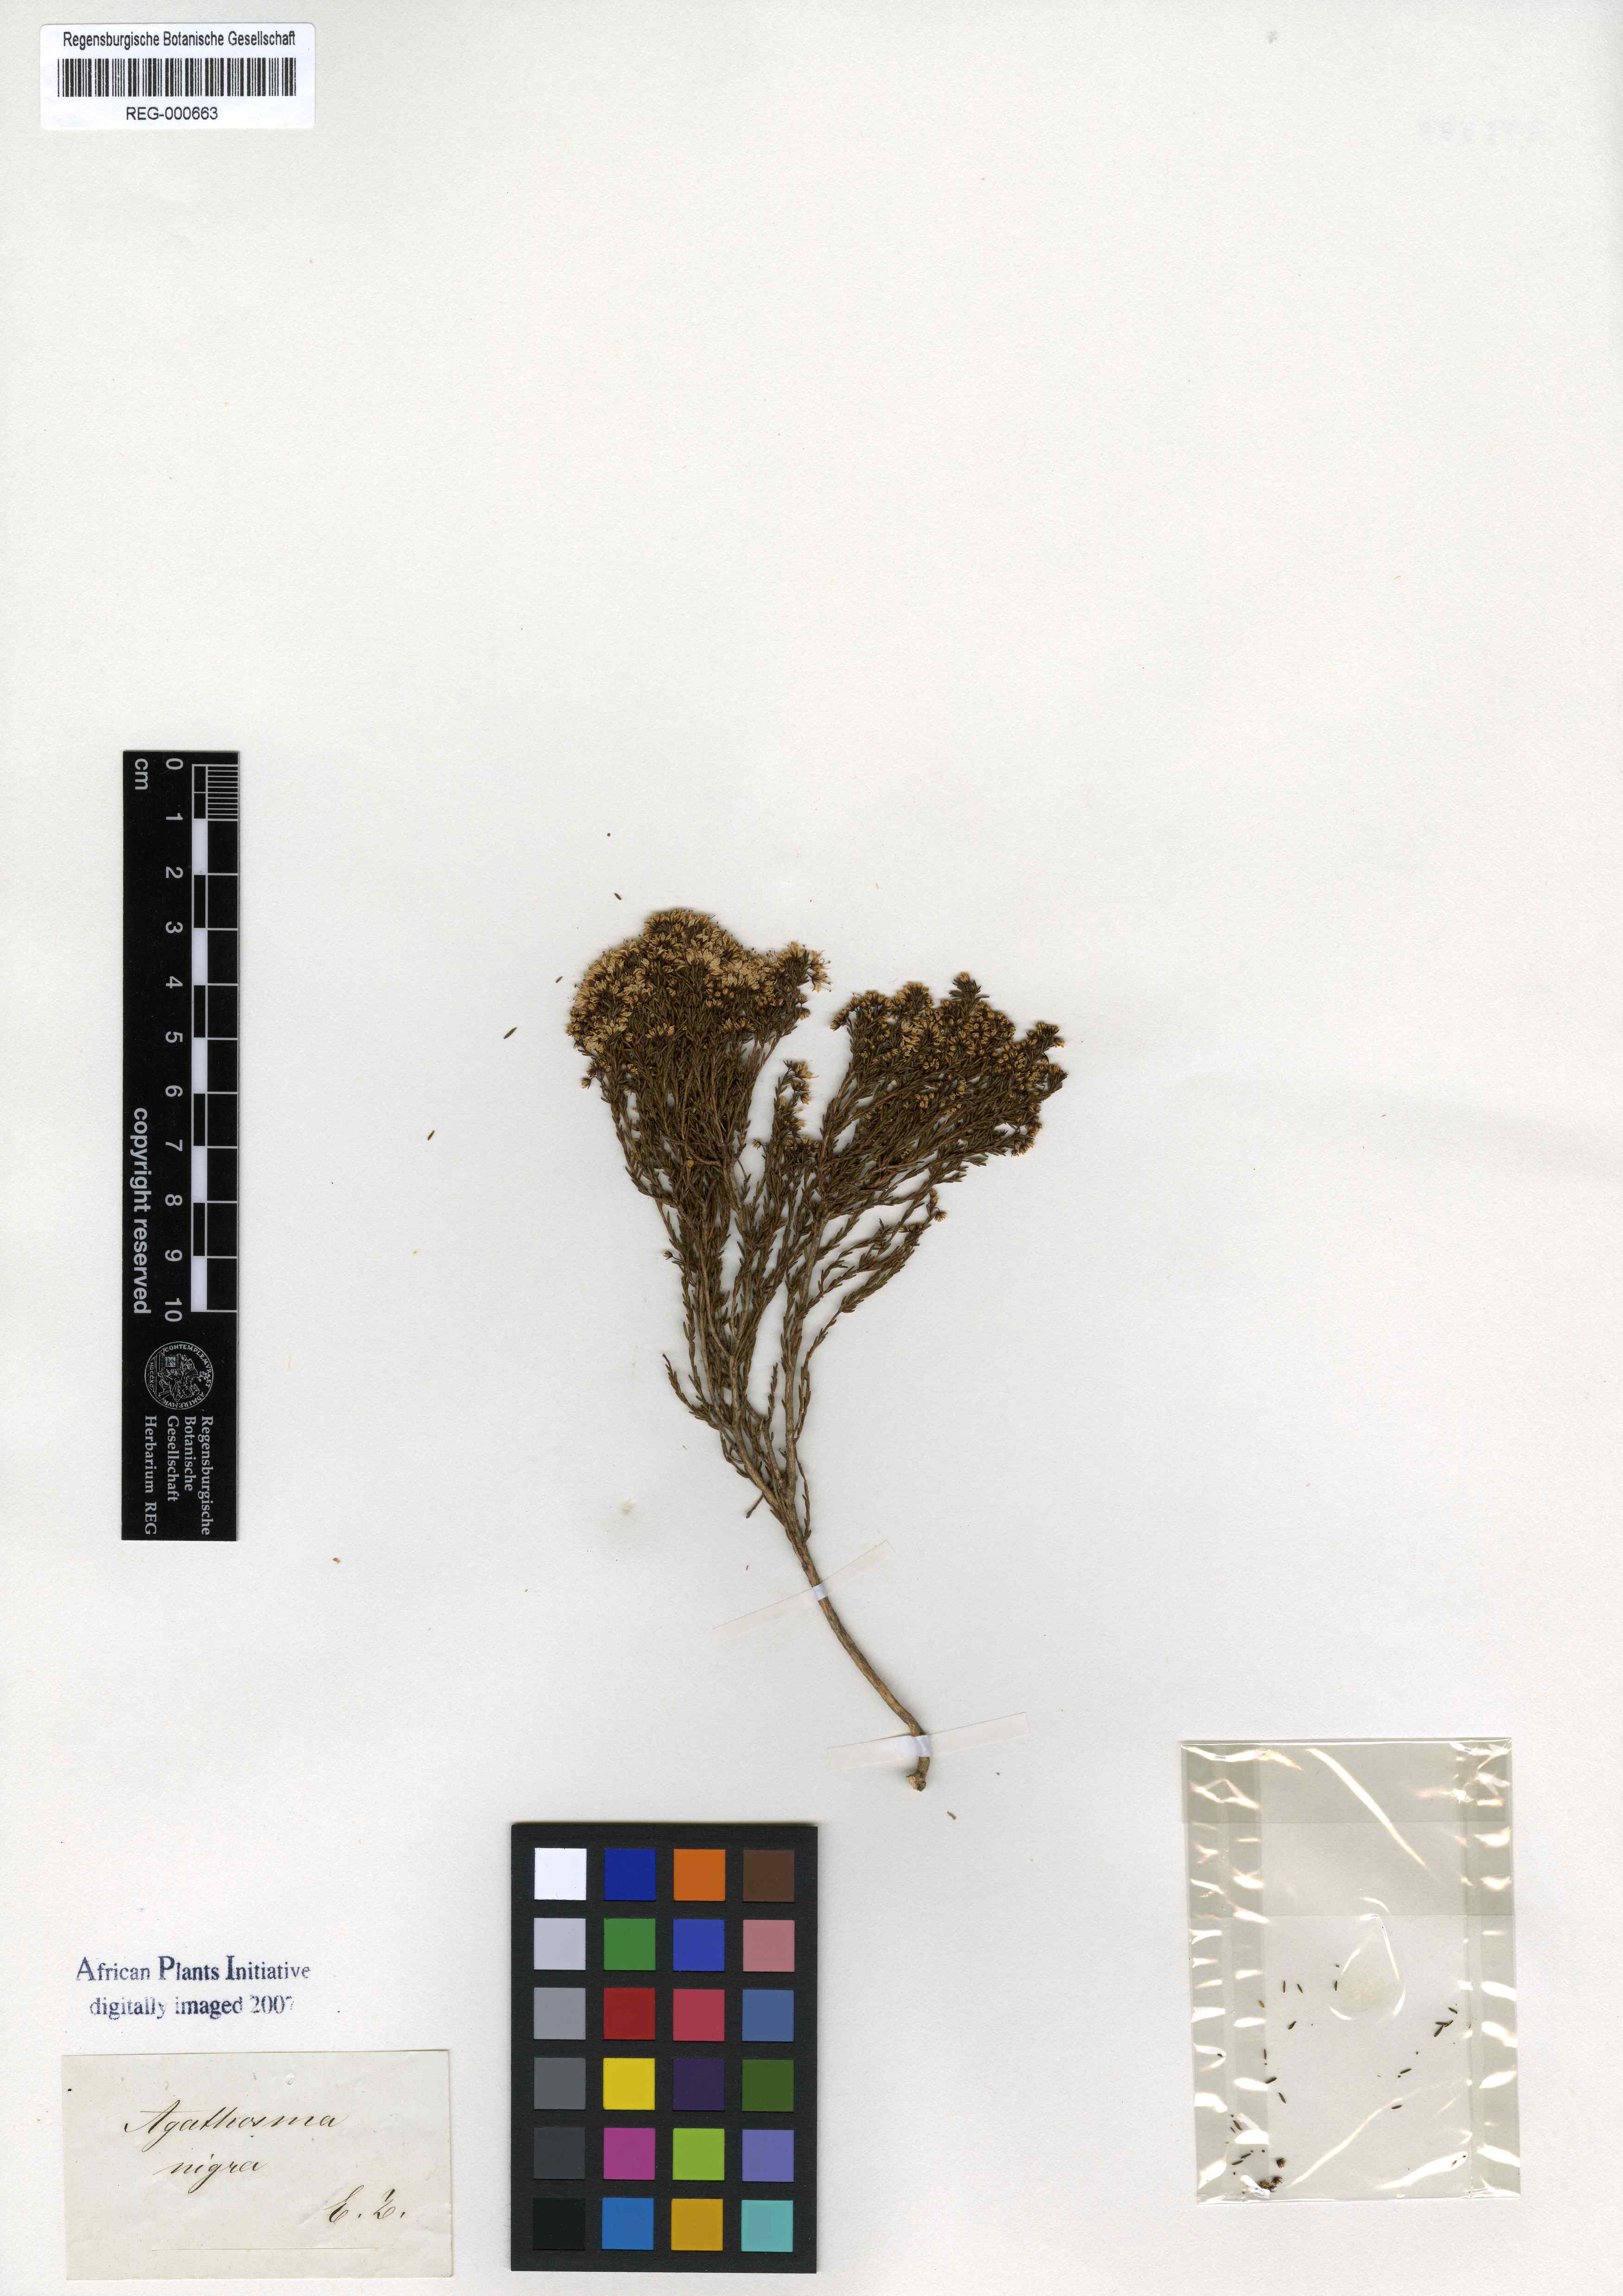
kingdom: Plantae
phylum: Tracheophyta
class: Magnoliopsida
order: Sapindales
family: Rutaceae
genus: Agathosma
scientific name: Agathosma capensis
